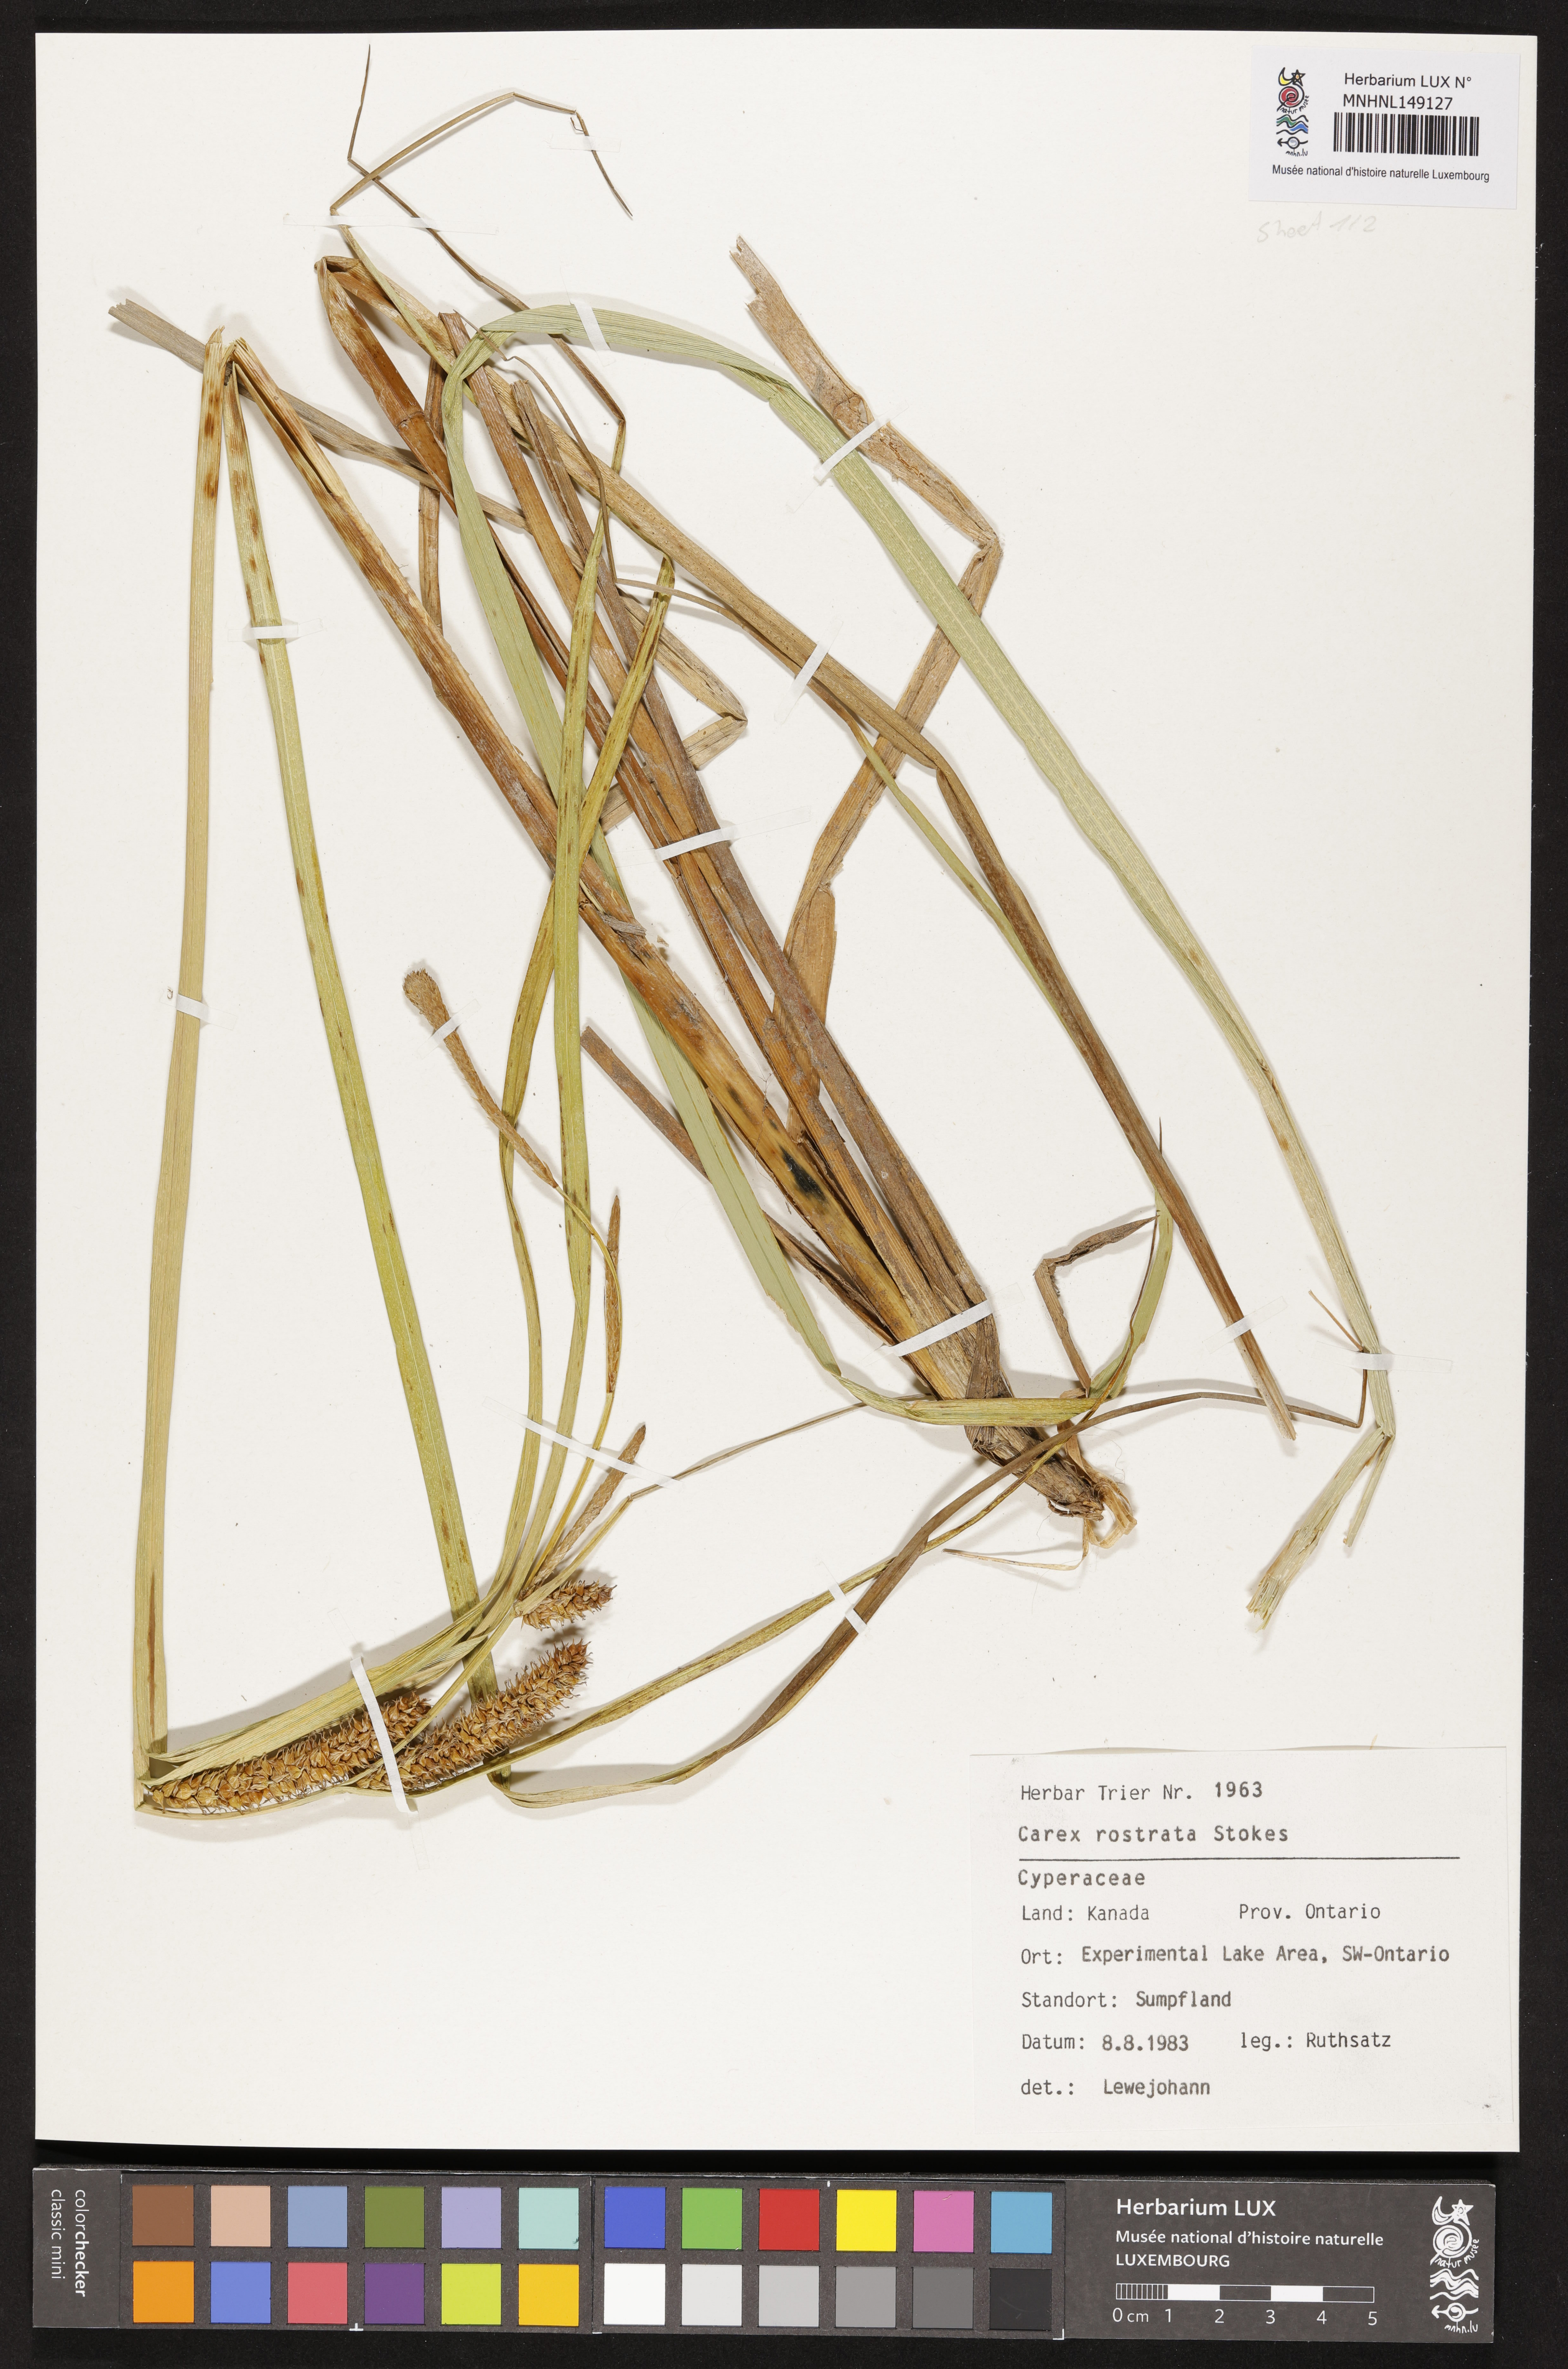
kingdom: Plantae
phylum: Tracheophyta
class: Liliopsida
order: Poales
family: Cyperaceae
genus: Carex
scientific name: Carex rostrata
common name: Bottle sedge
